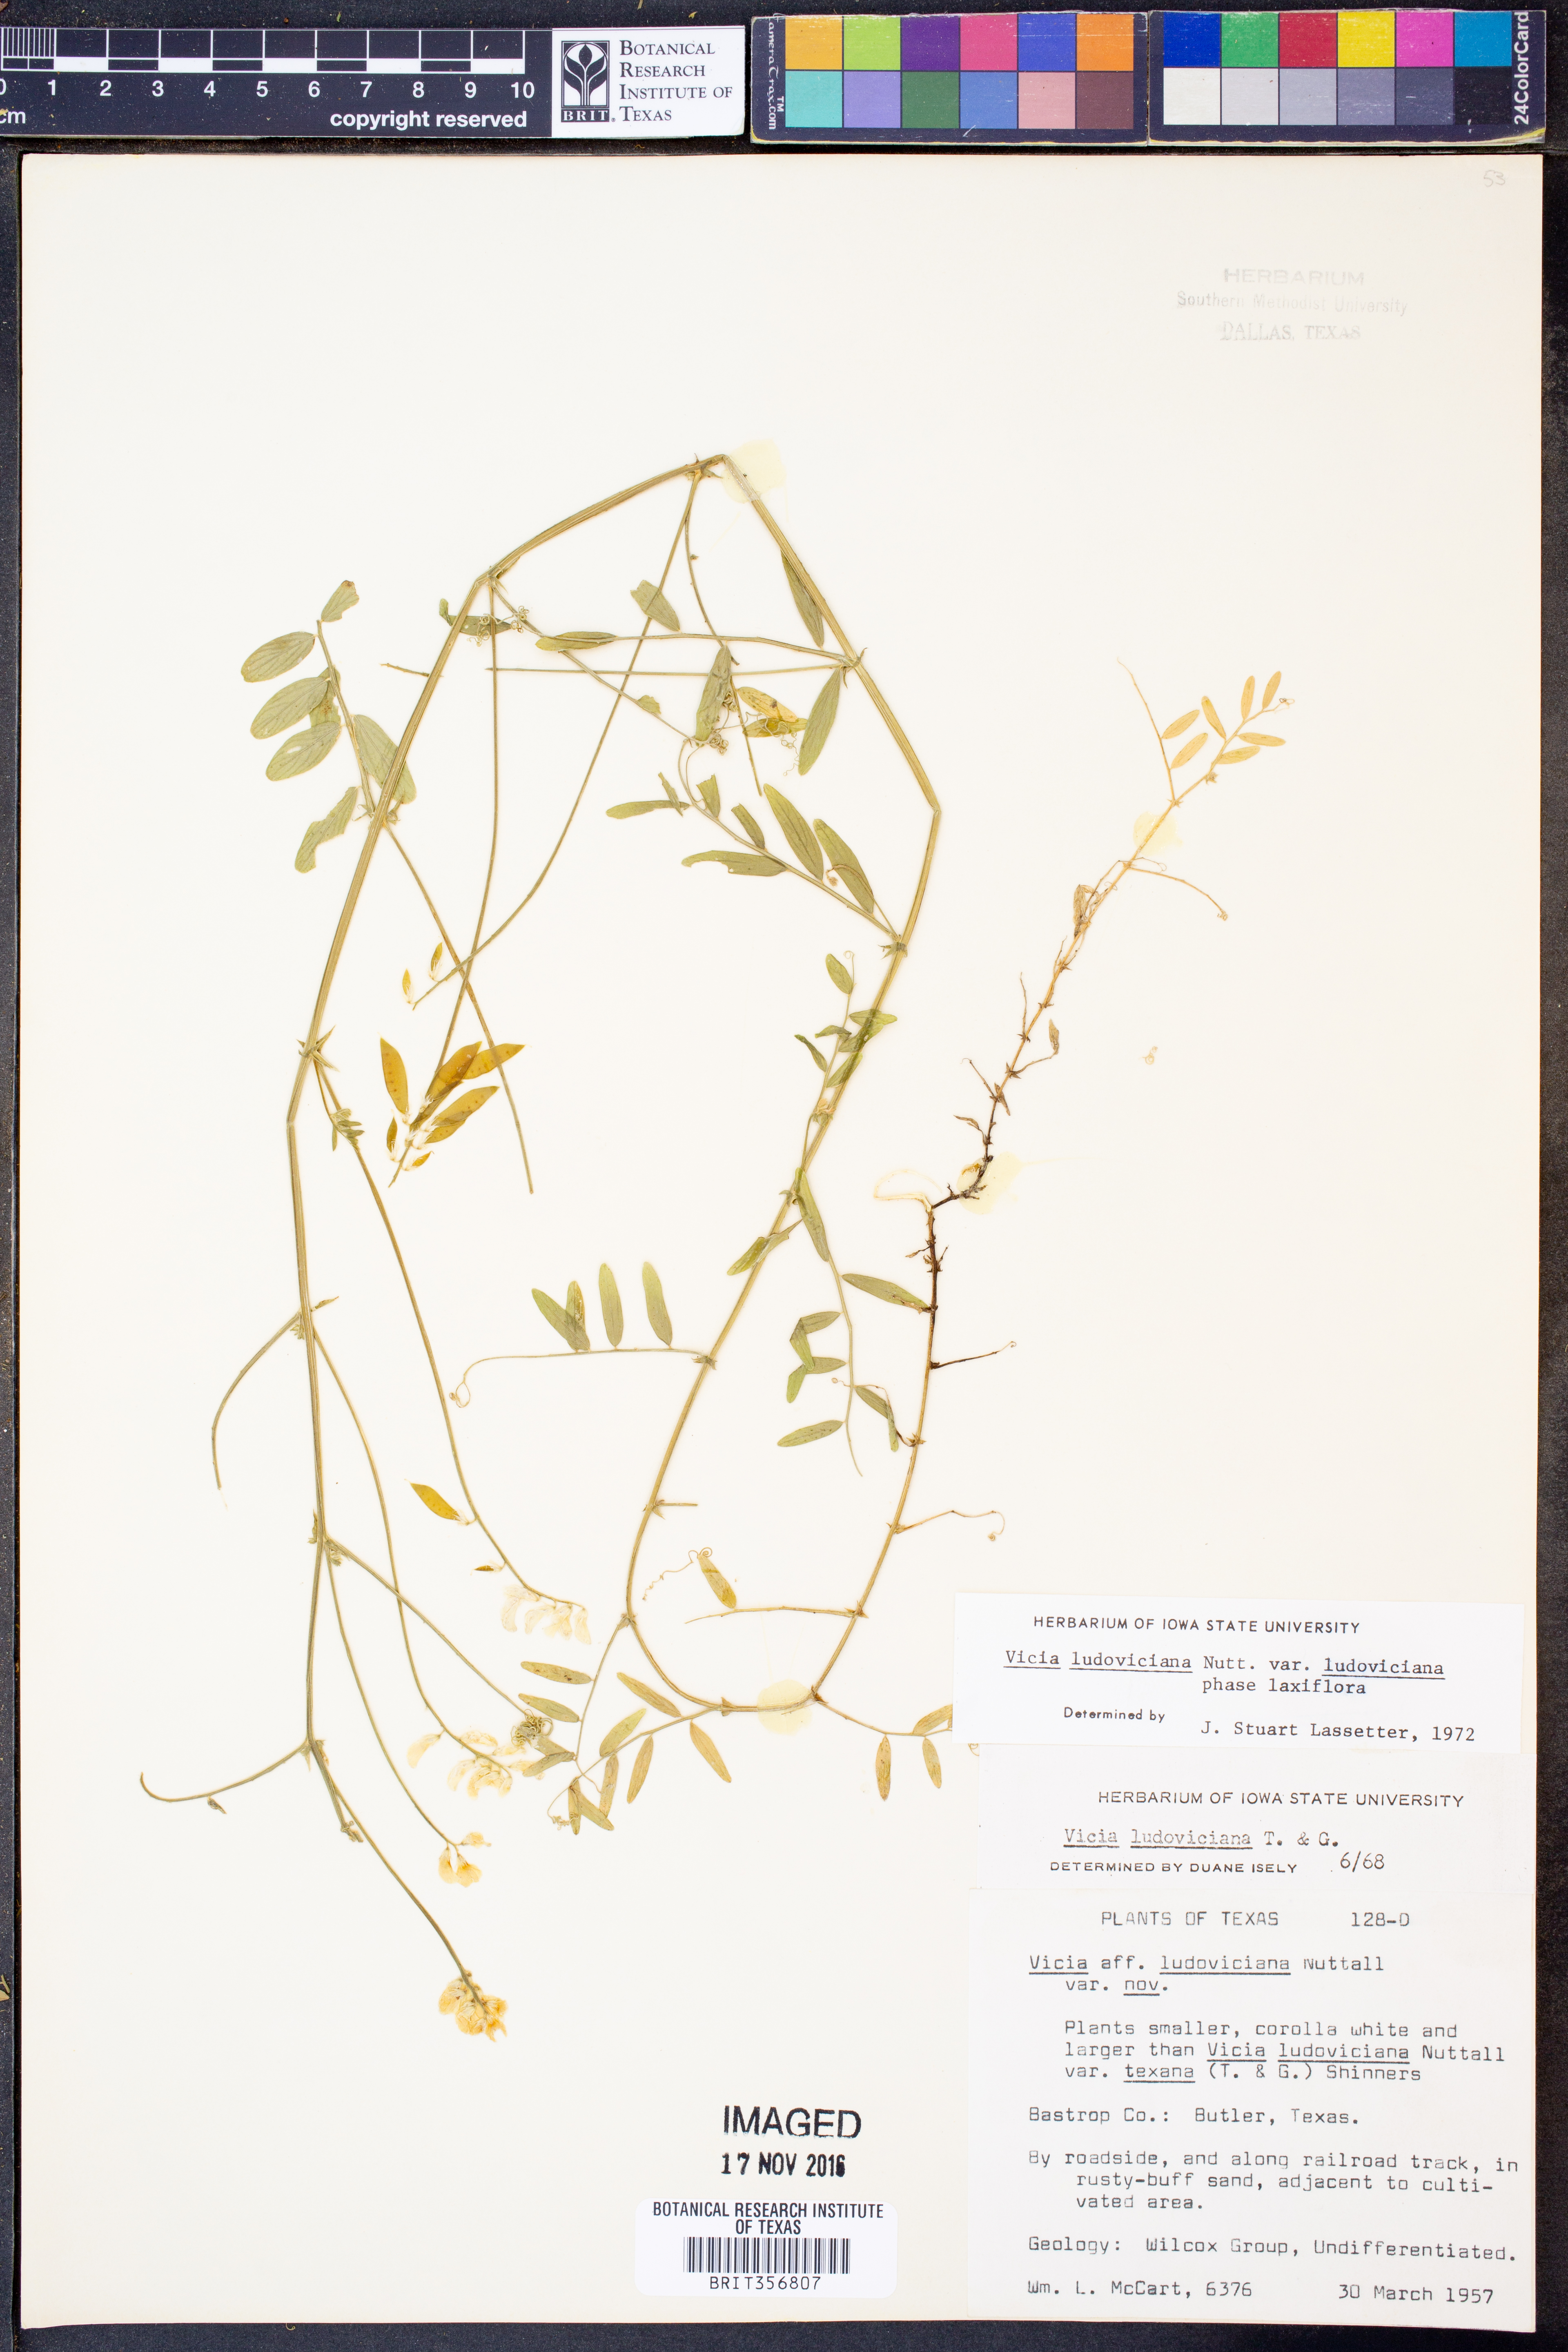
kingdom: Plantae
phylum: Tracheophyta
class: Magnoliopsida
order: Fabales
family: Fabaceae
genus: Vicia
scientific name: Vicia ludoviciana
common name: Louisiana vetch
